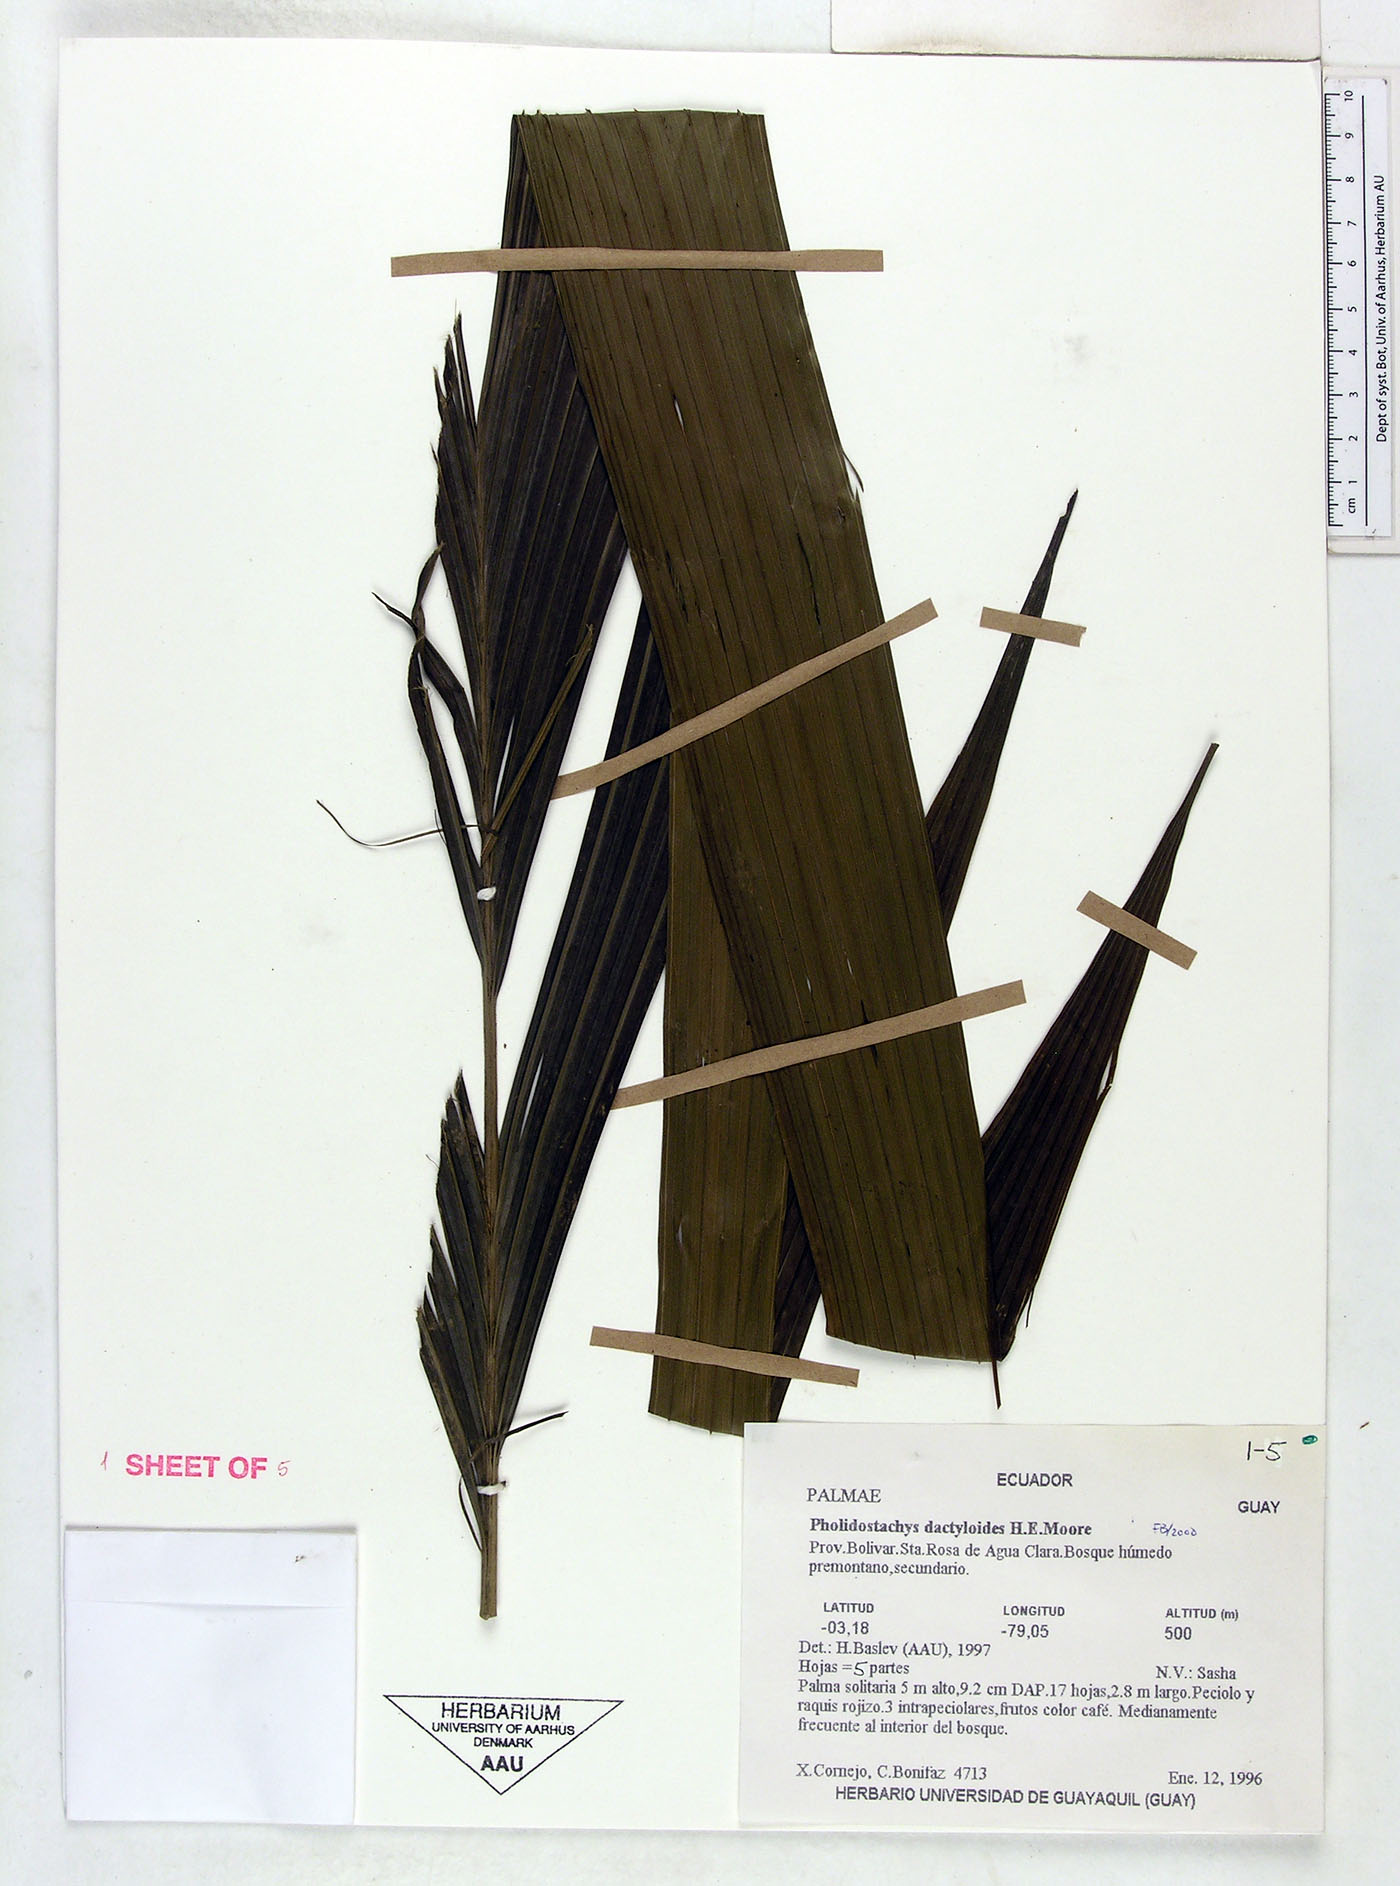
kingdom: Plantae
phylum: Tracheophyta
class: Liliopsida
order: Arecales
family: Arecaceae
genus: Pholidostachys
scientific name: Pholidostachys dactyloides
